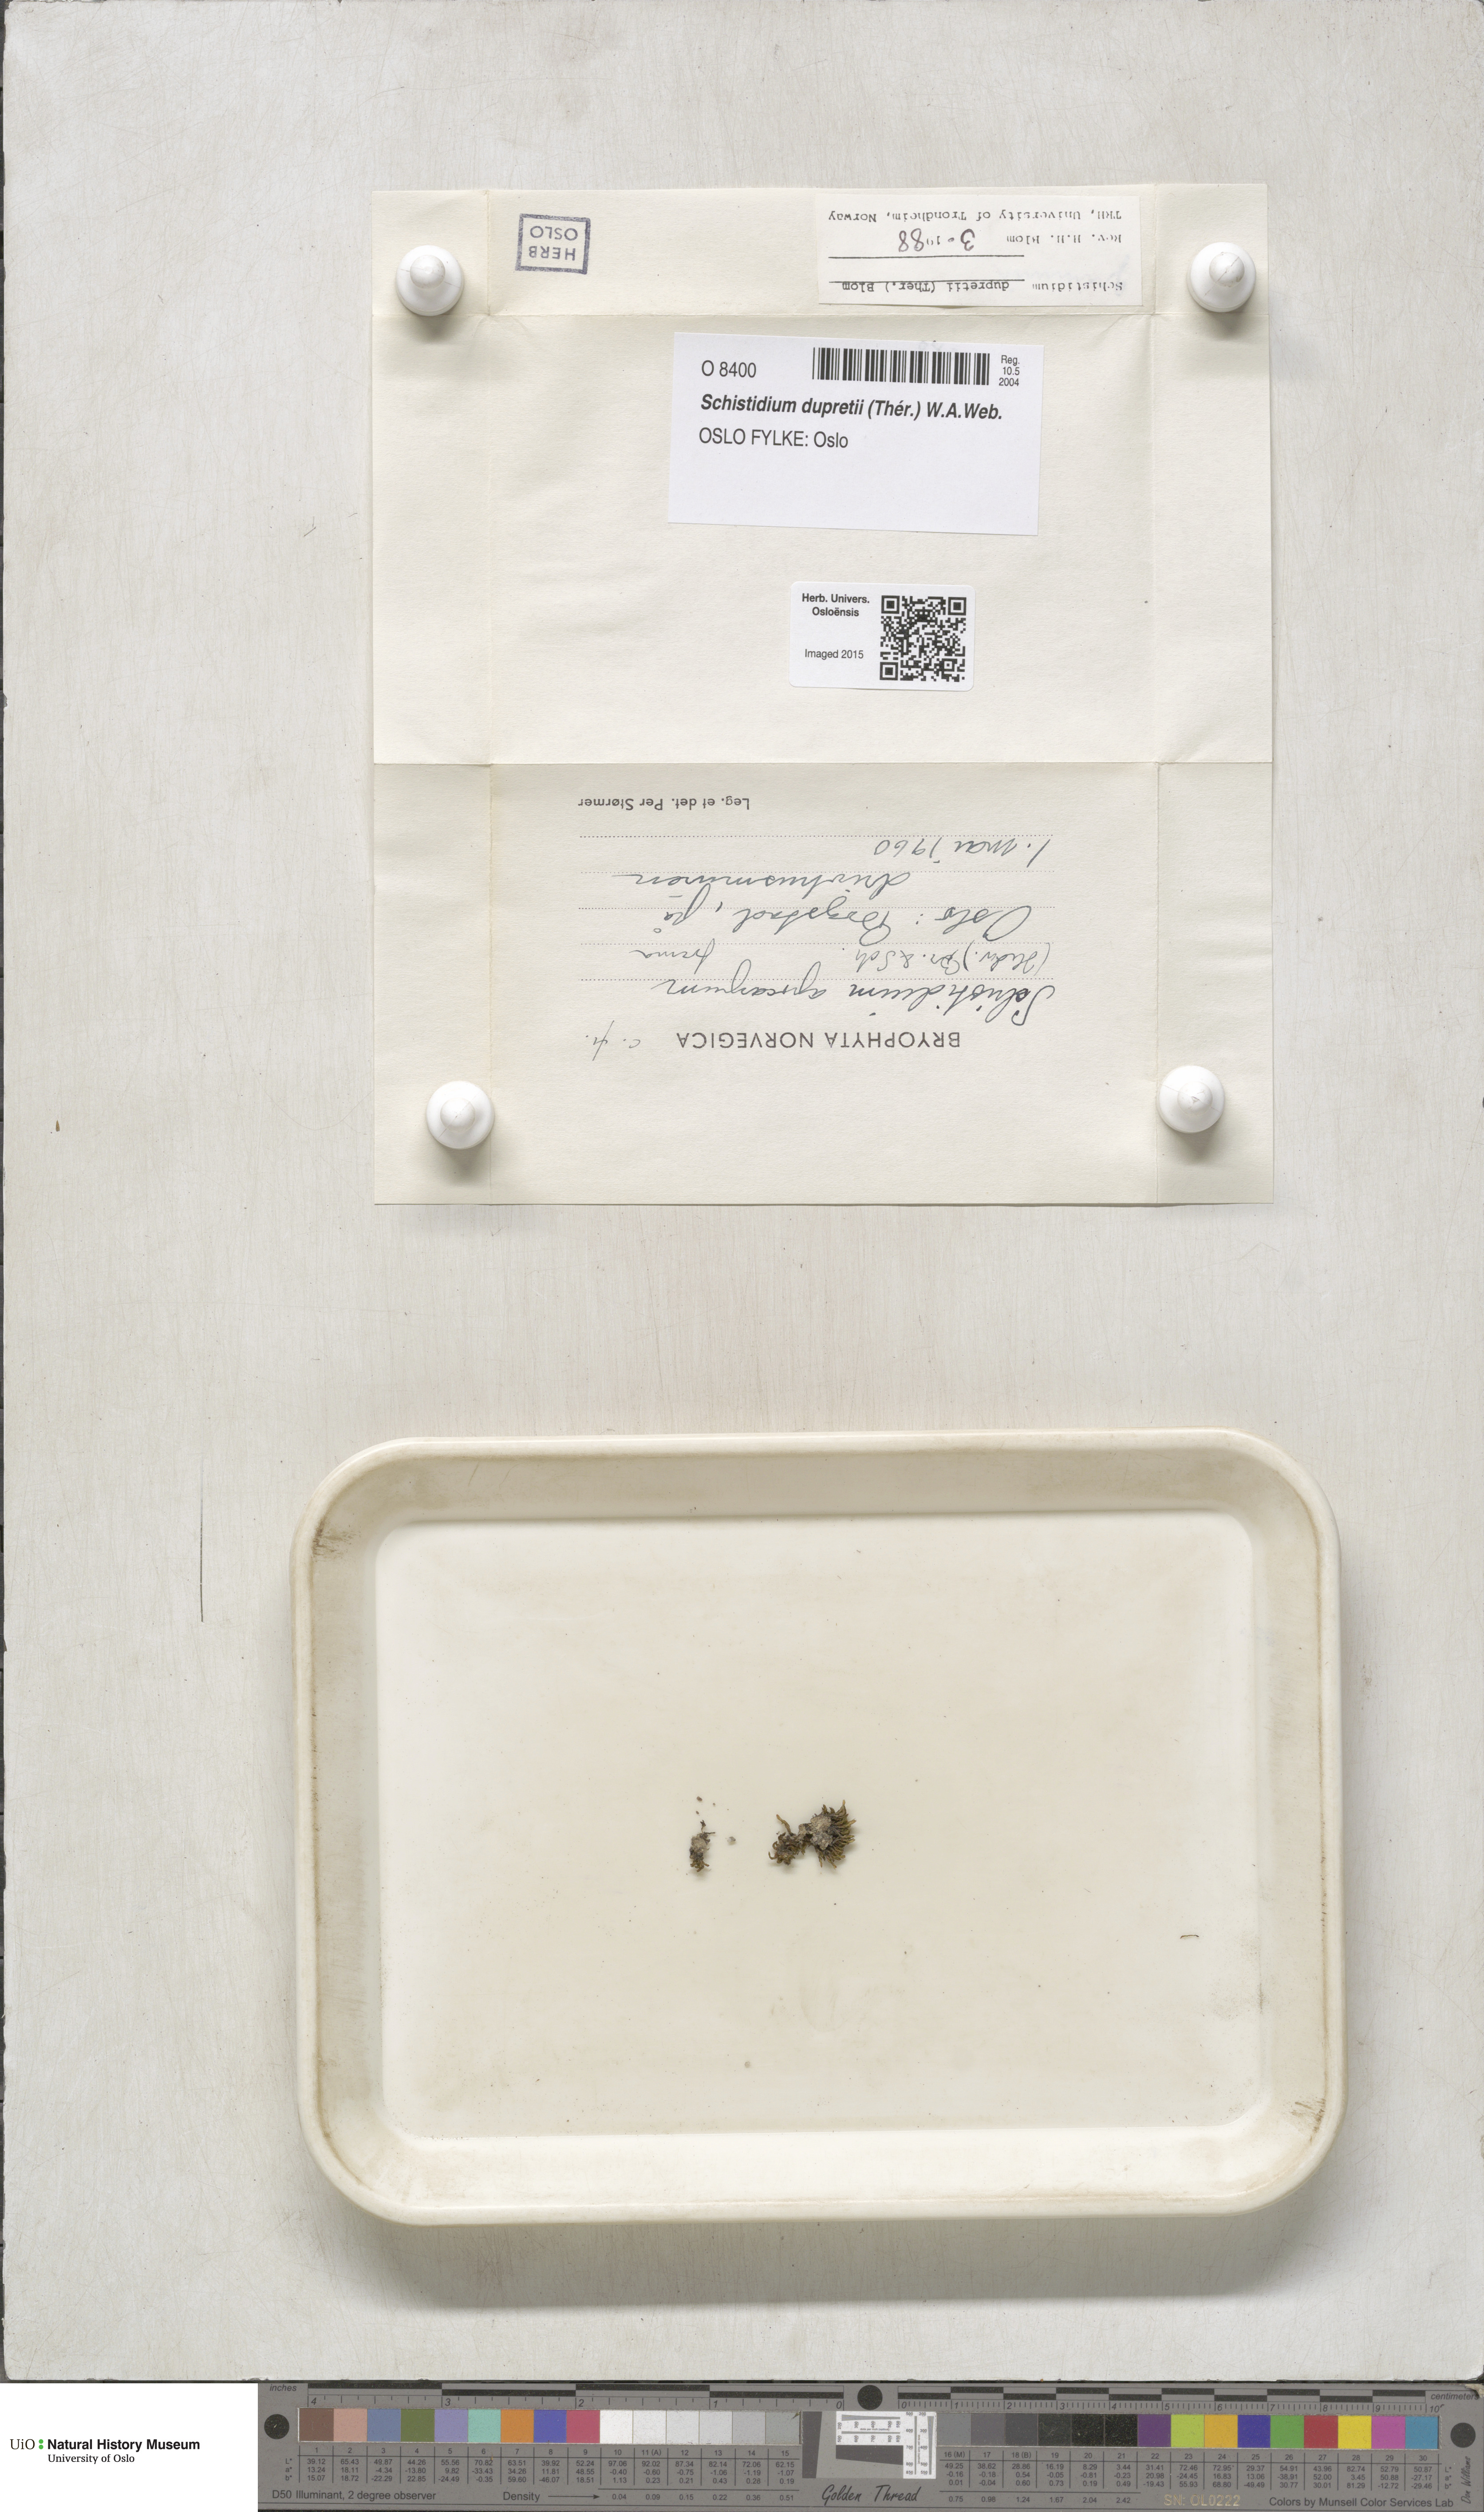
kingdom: Plantae
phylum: Bryophyta
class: Bryopsida
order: Grimmiales
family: Grimmiaceae
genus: Schistidium
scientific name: Schistidium dupretii
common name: Dupret's bloom moss
